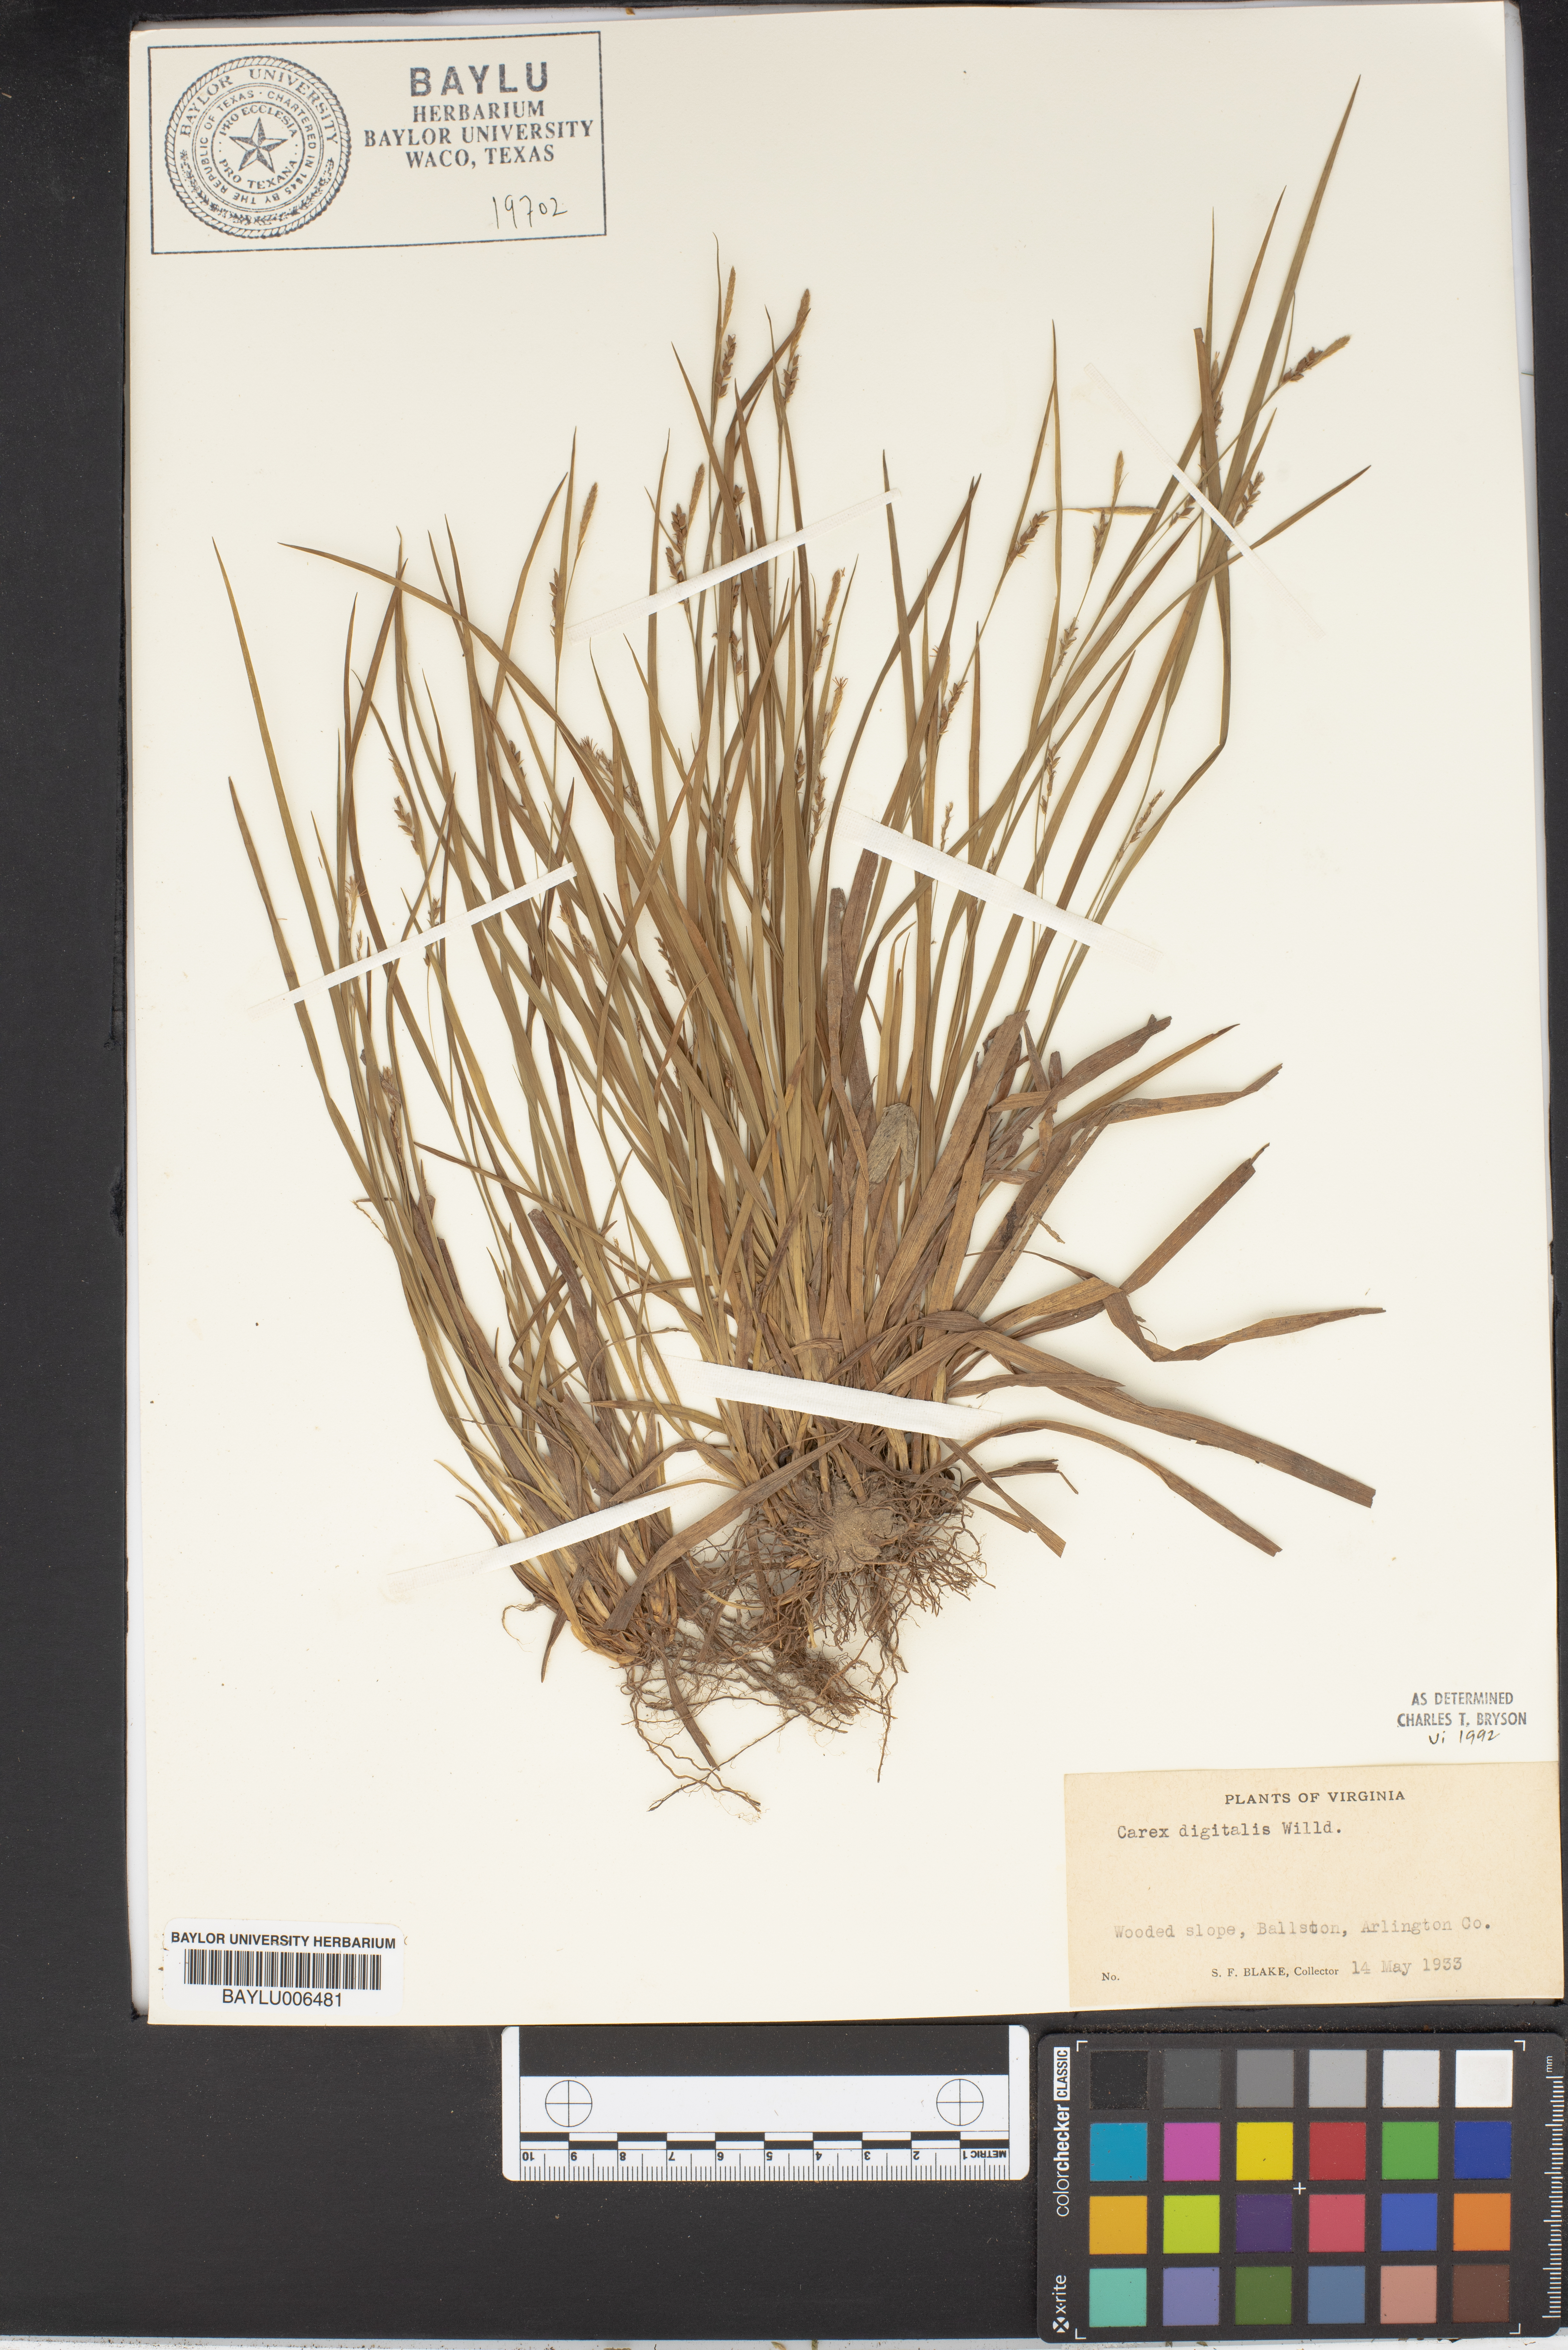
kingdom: Plantae
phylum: Tracheophyta
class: Liliopsida
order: Poales
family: Cyperaceae
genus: Carex
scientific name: Carex digitalis
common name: Slender wood sedge
